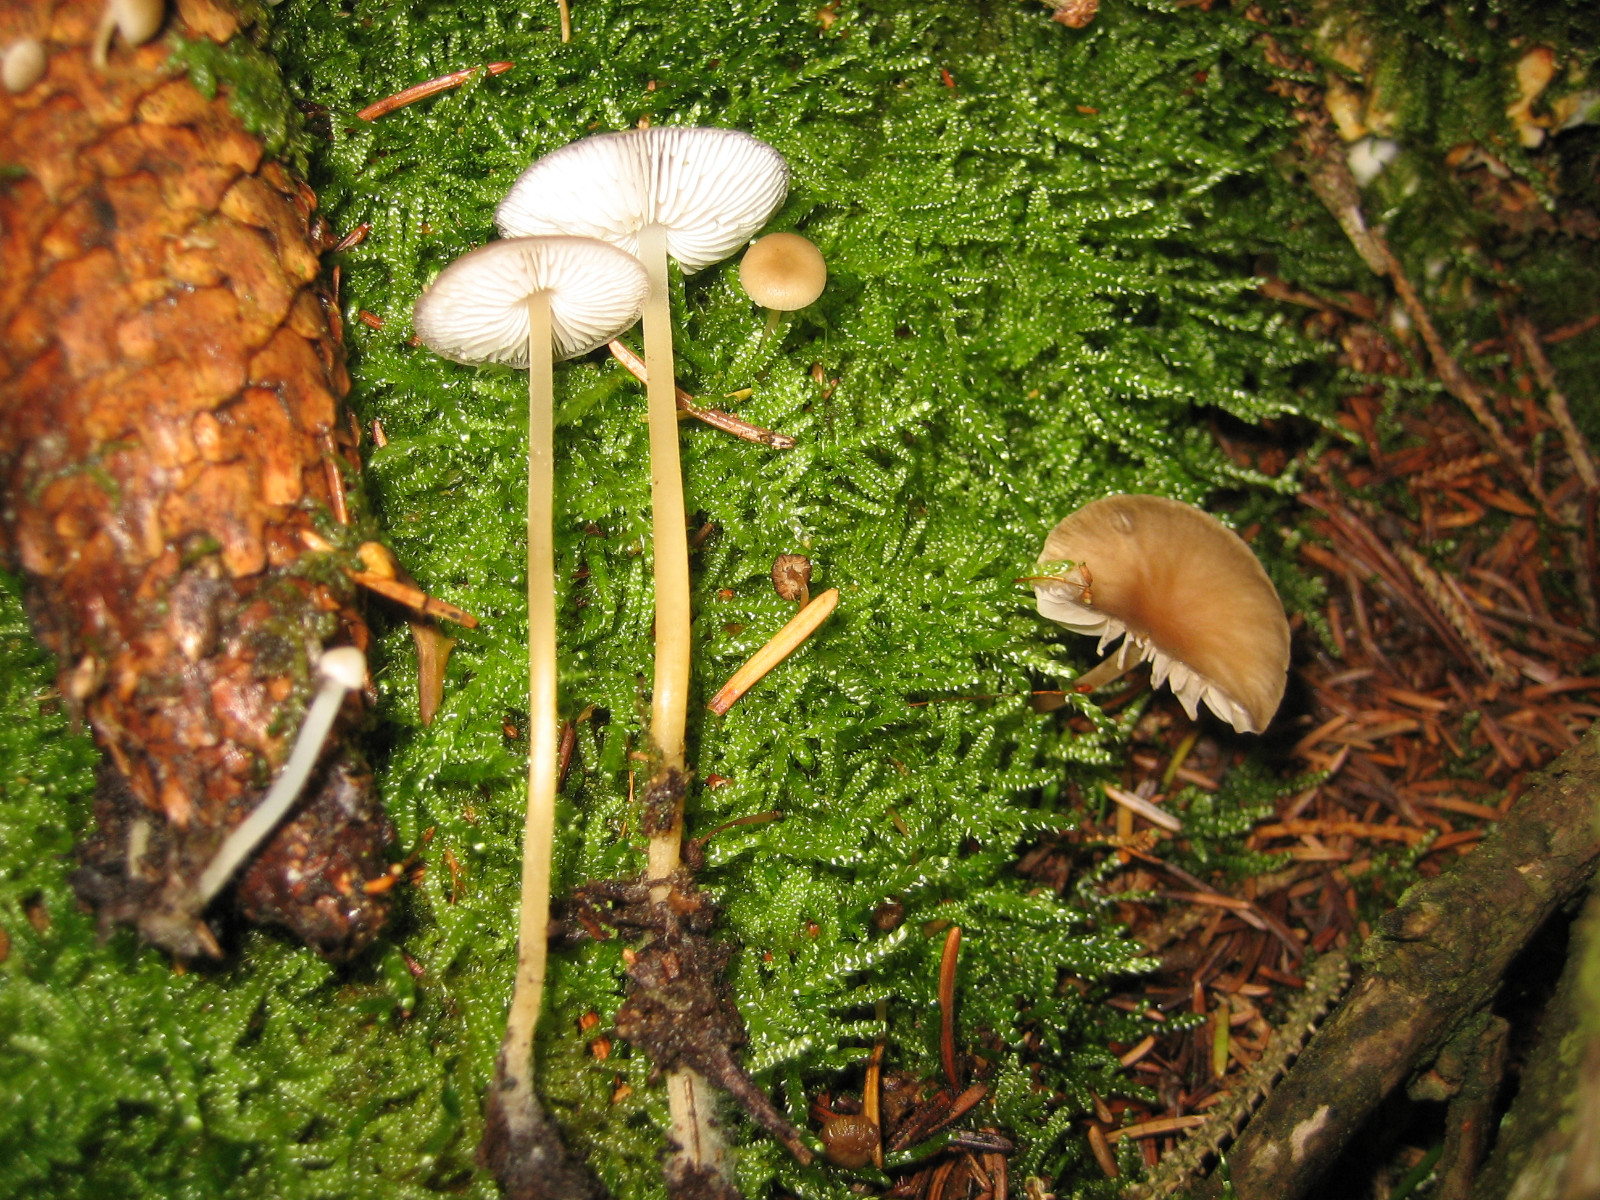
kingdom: Fungi
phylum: Basidiomycota
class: Agaricomycetes
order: Agaricales
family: Physalacriaceae
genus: Strobilurus
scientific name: Strobilurus esculentus
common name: gran-koglehat
